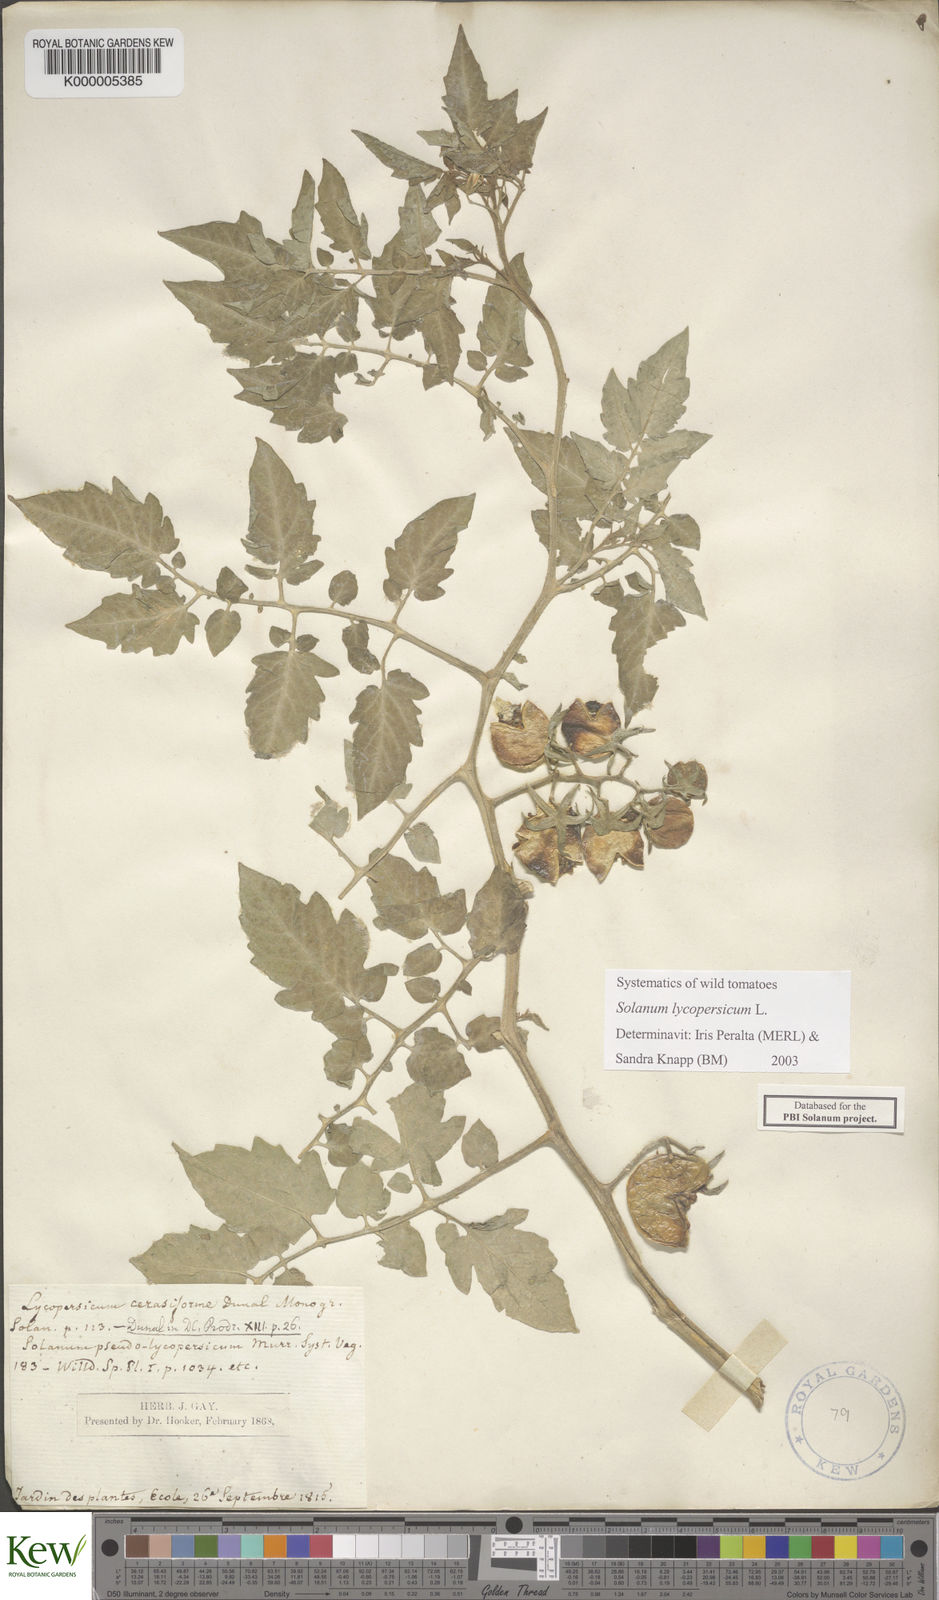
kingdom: Plantae
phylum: Tracheophyta
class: Magnoliopsida
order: Solanales
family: Solanaceae
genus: Solanum
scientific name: Solanum lycopersicum
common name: Garden tomato
